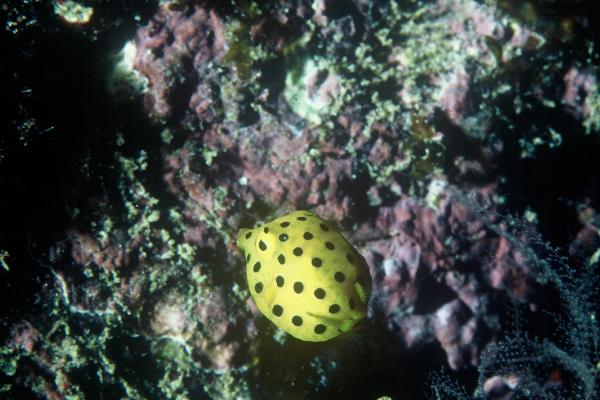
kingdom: Animalia
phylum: Chordata
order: Tetraodontiformes
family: Ostraciidae
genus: Ostracion
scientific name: Ostracion cubicus
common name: Cube trunkfish
